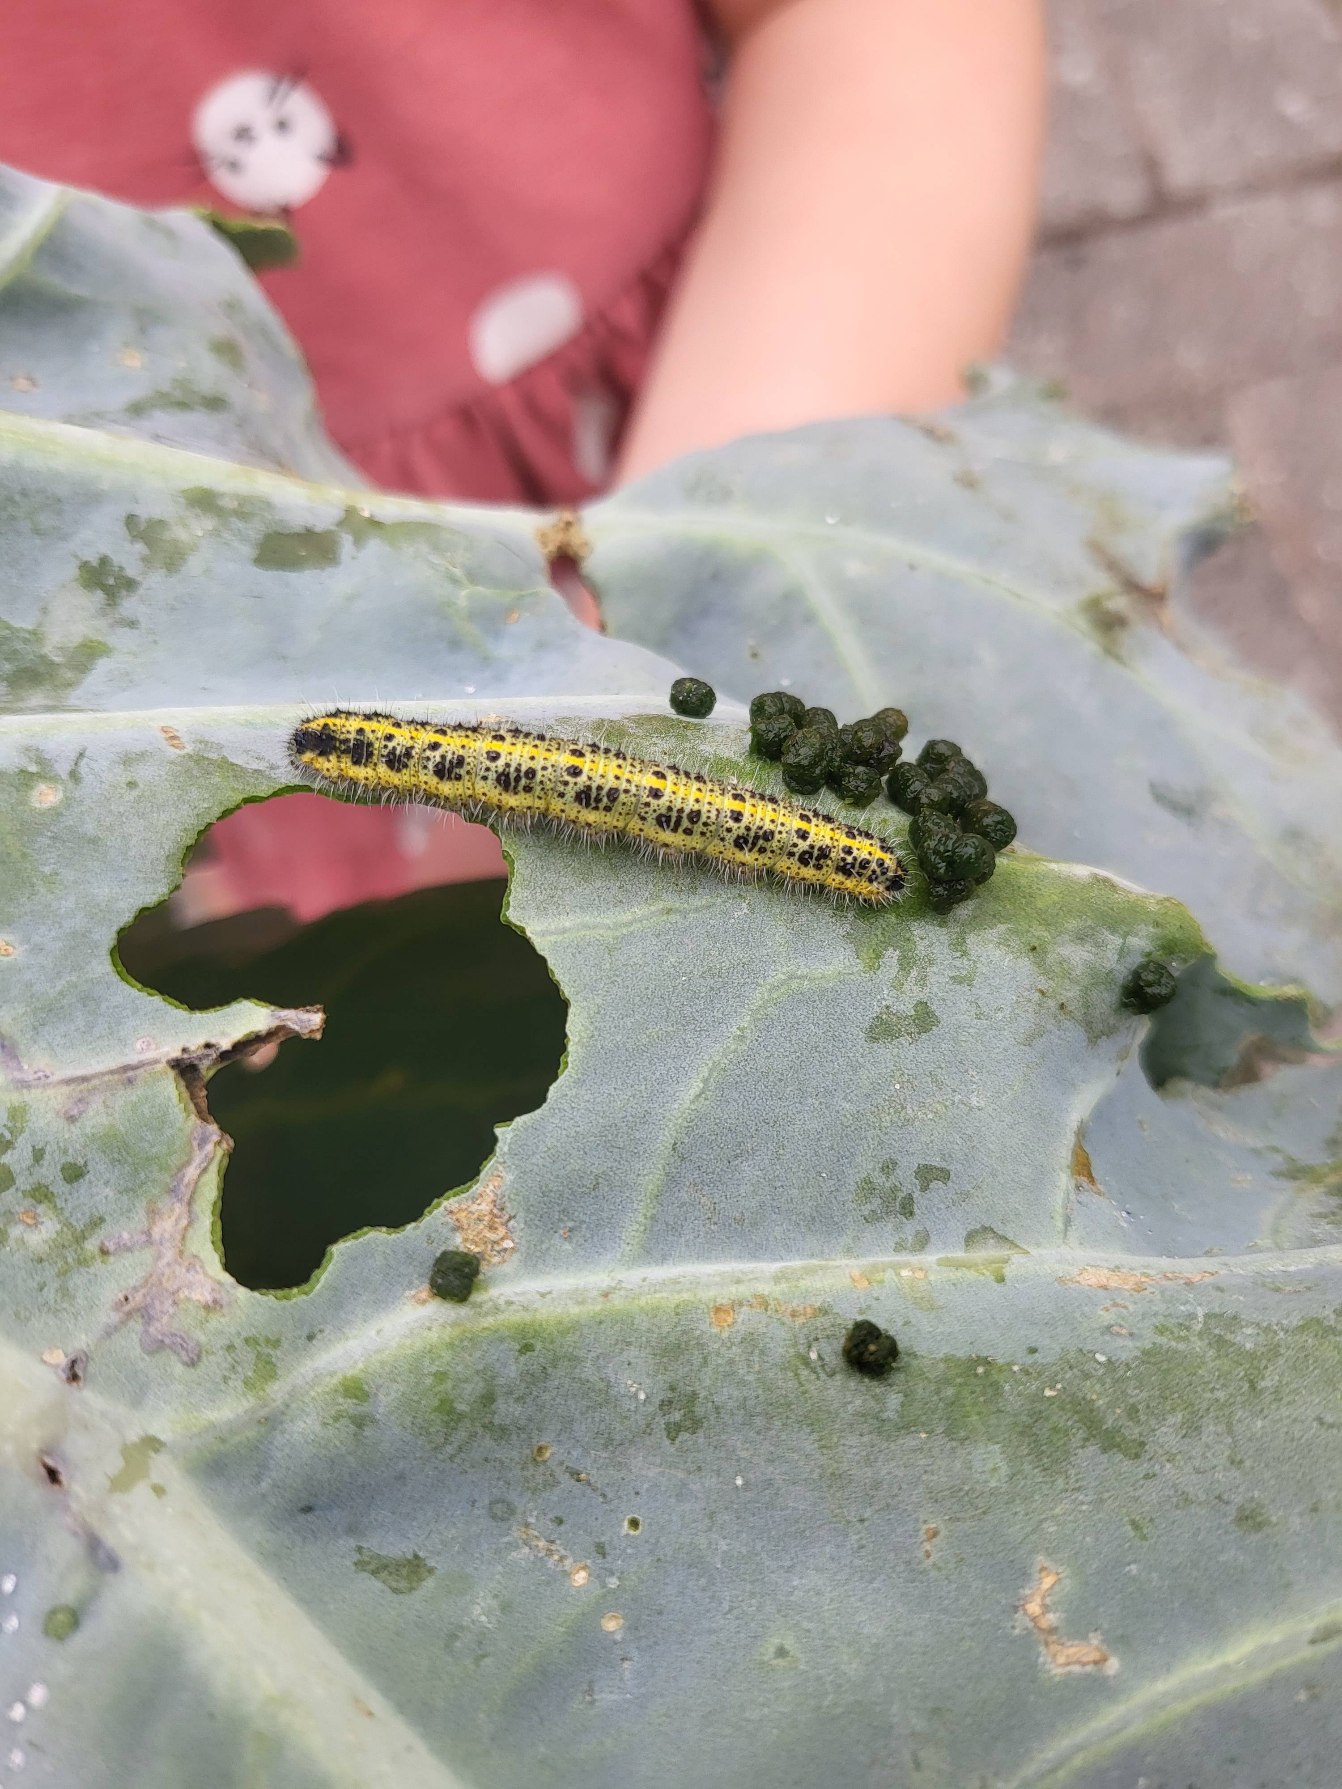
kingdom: Animalia
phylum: Arthropoda
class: Insecta
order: Lepidoptera
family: Pieridae
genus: Pieris
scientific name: Pieris brassicae
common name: Stor kålsommerfugl
